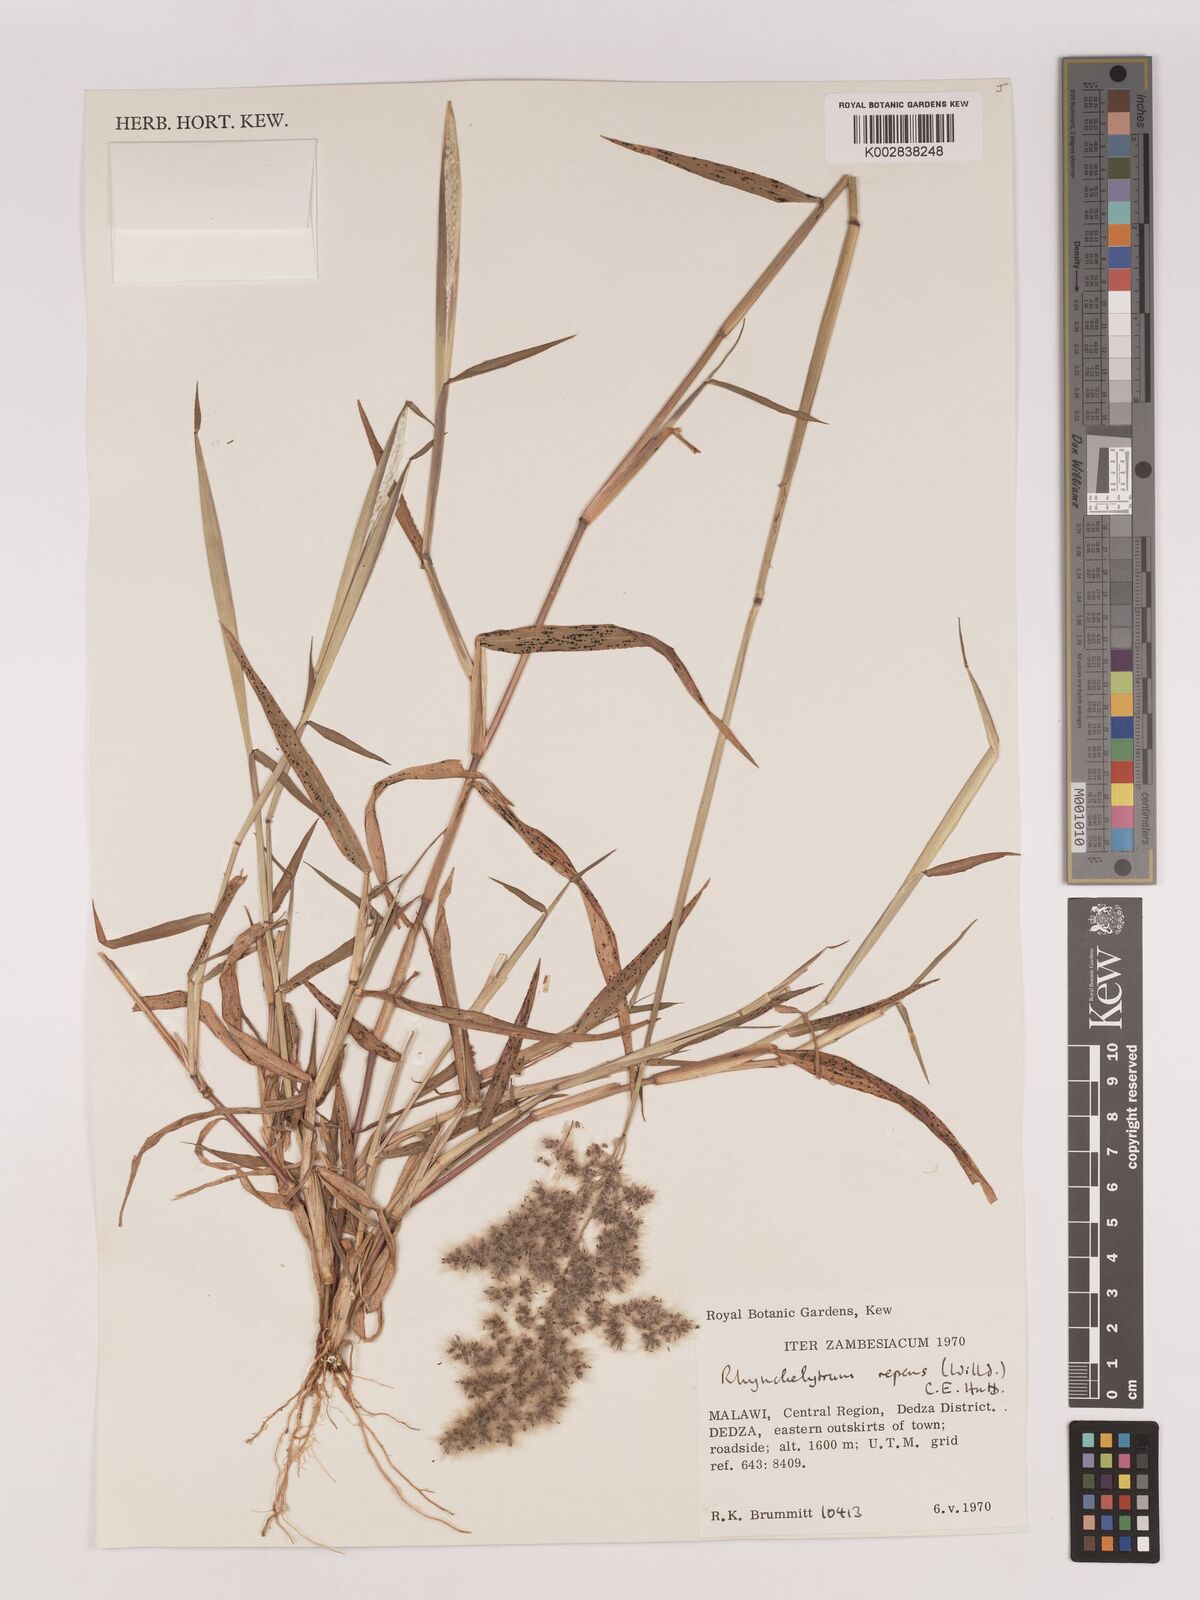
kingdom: Plantae
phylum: Tracheophyta
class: Liliopsida
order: Poales
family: Poaceae
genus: Melinis
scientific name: Melinis repens
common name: Rose natal grass
